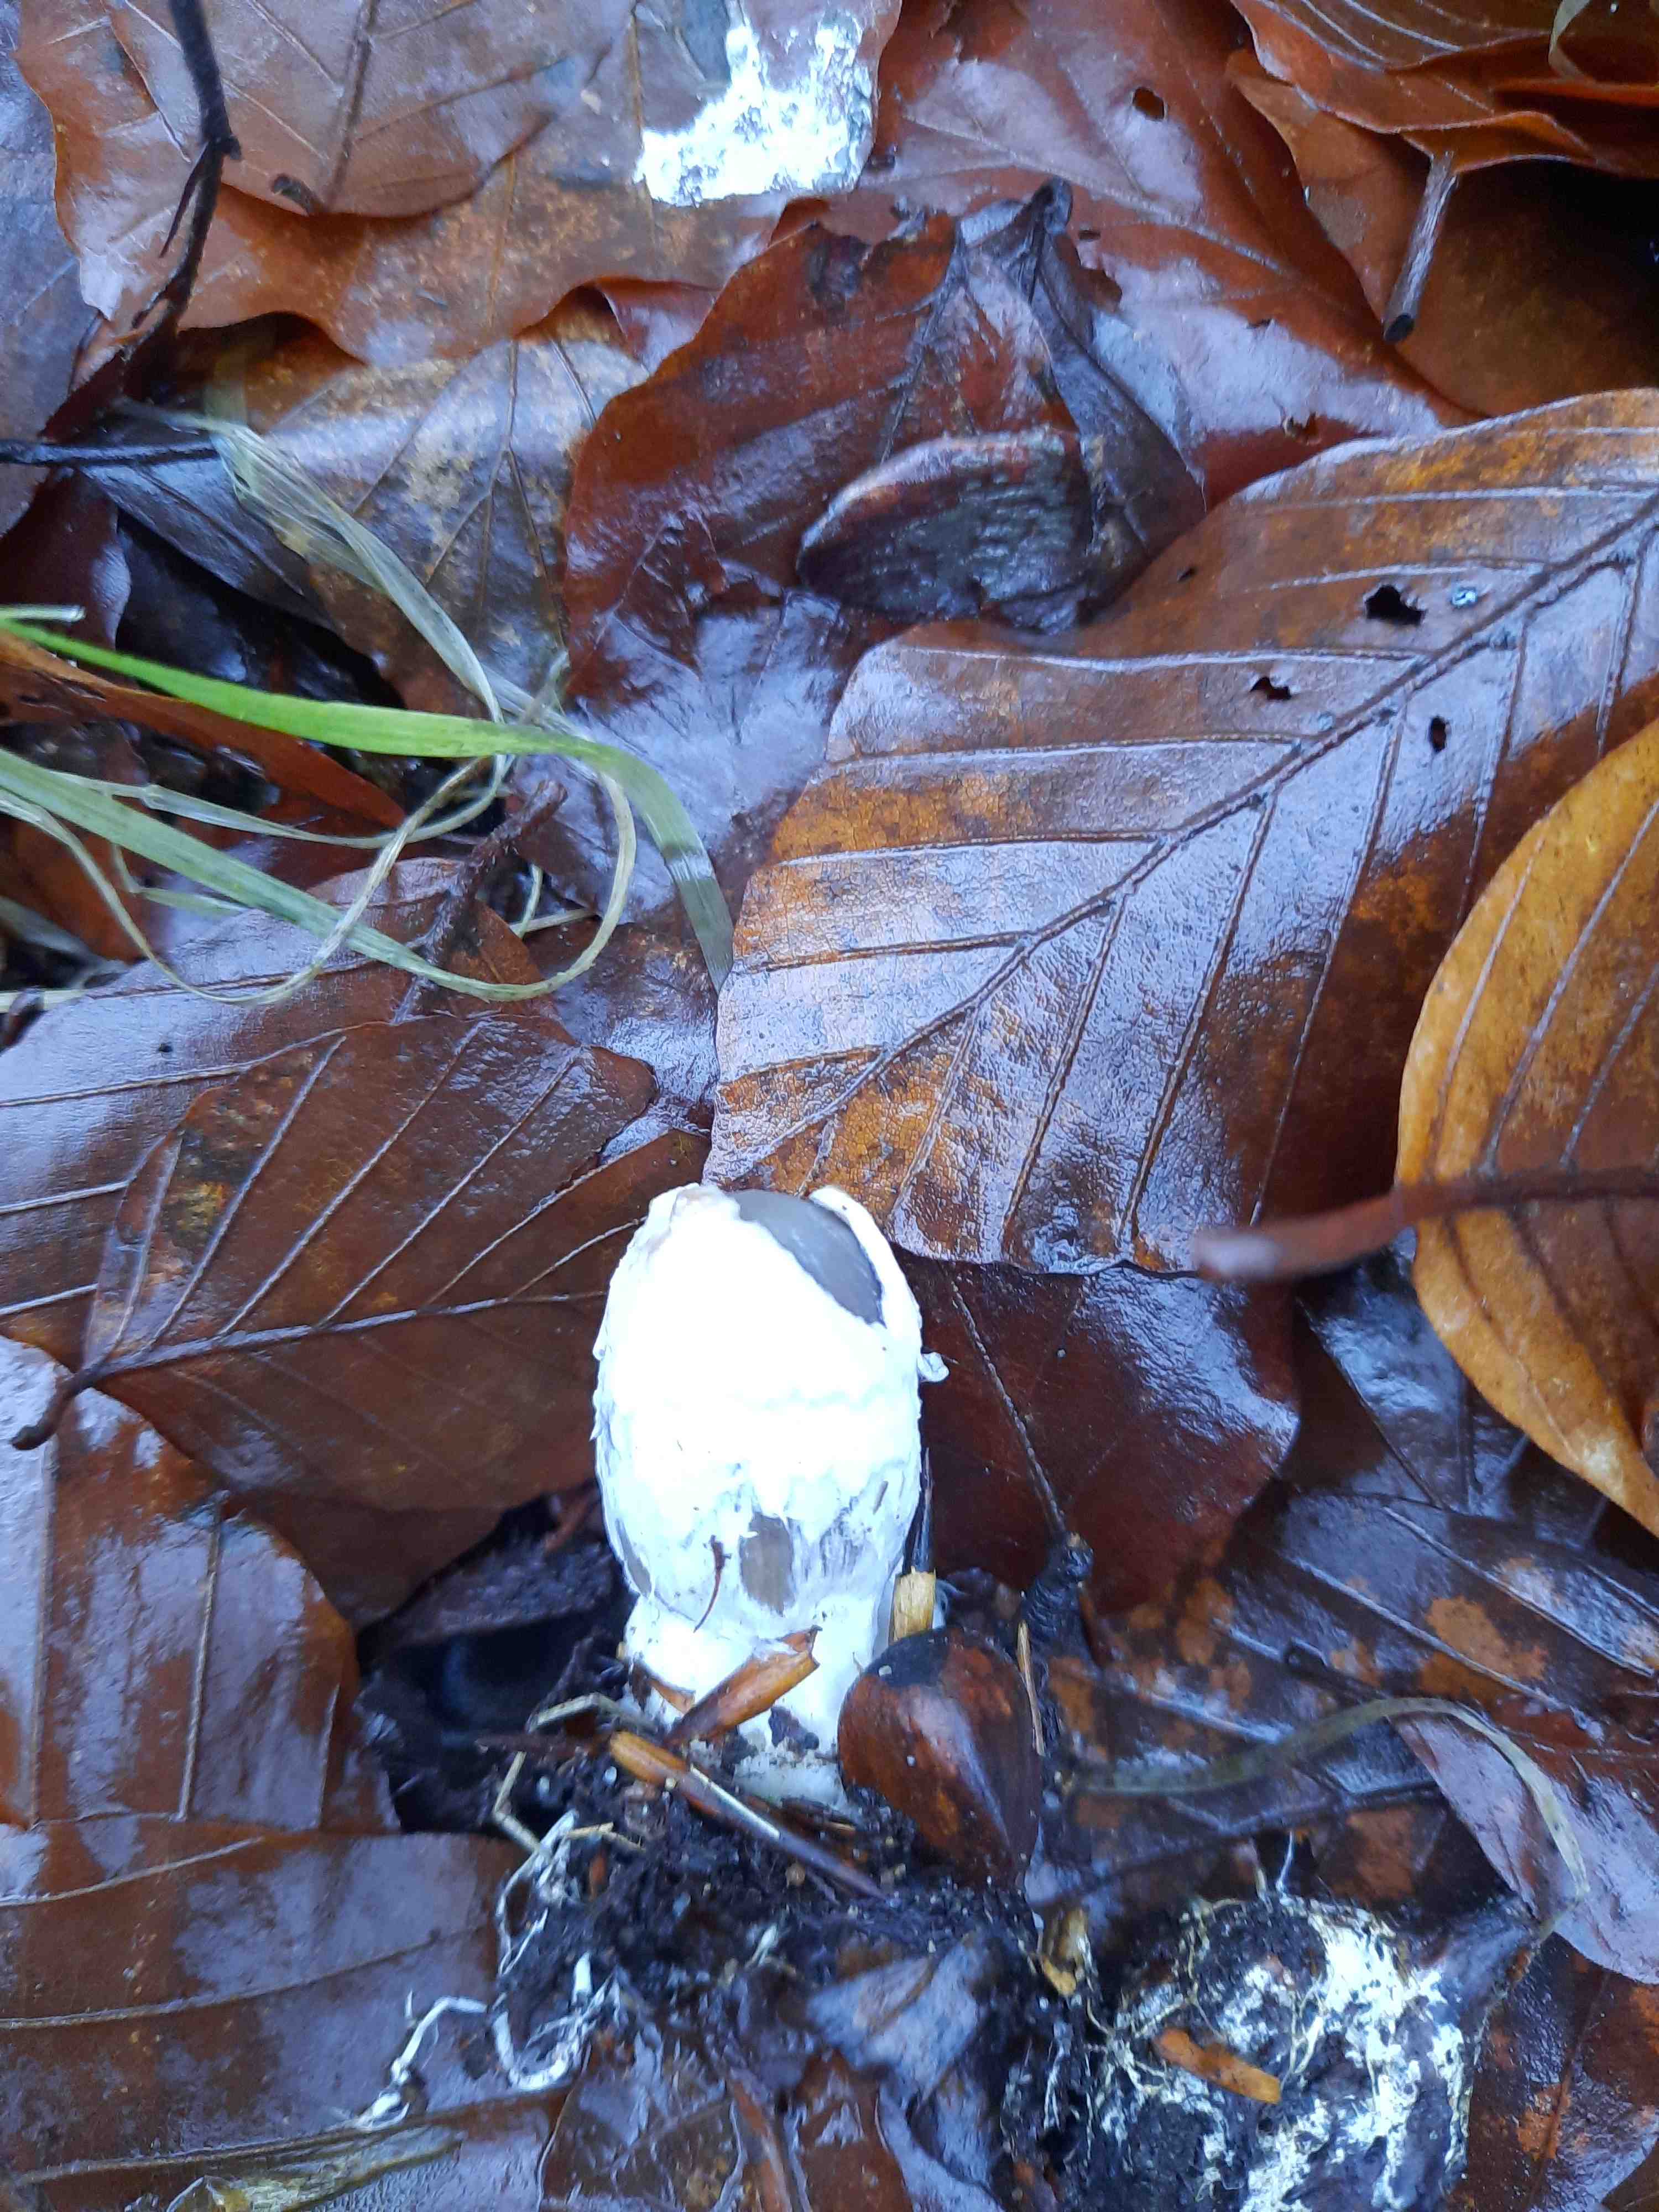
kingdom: Fungi
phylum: Basidiomycota
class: Agaricomycetes
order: Agaricales
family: Psathyrellaceae
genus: Coprinopsis
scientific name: Coprinopsis picacea
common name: skade-blækhat
